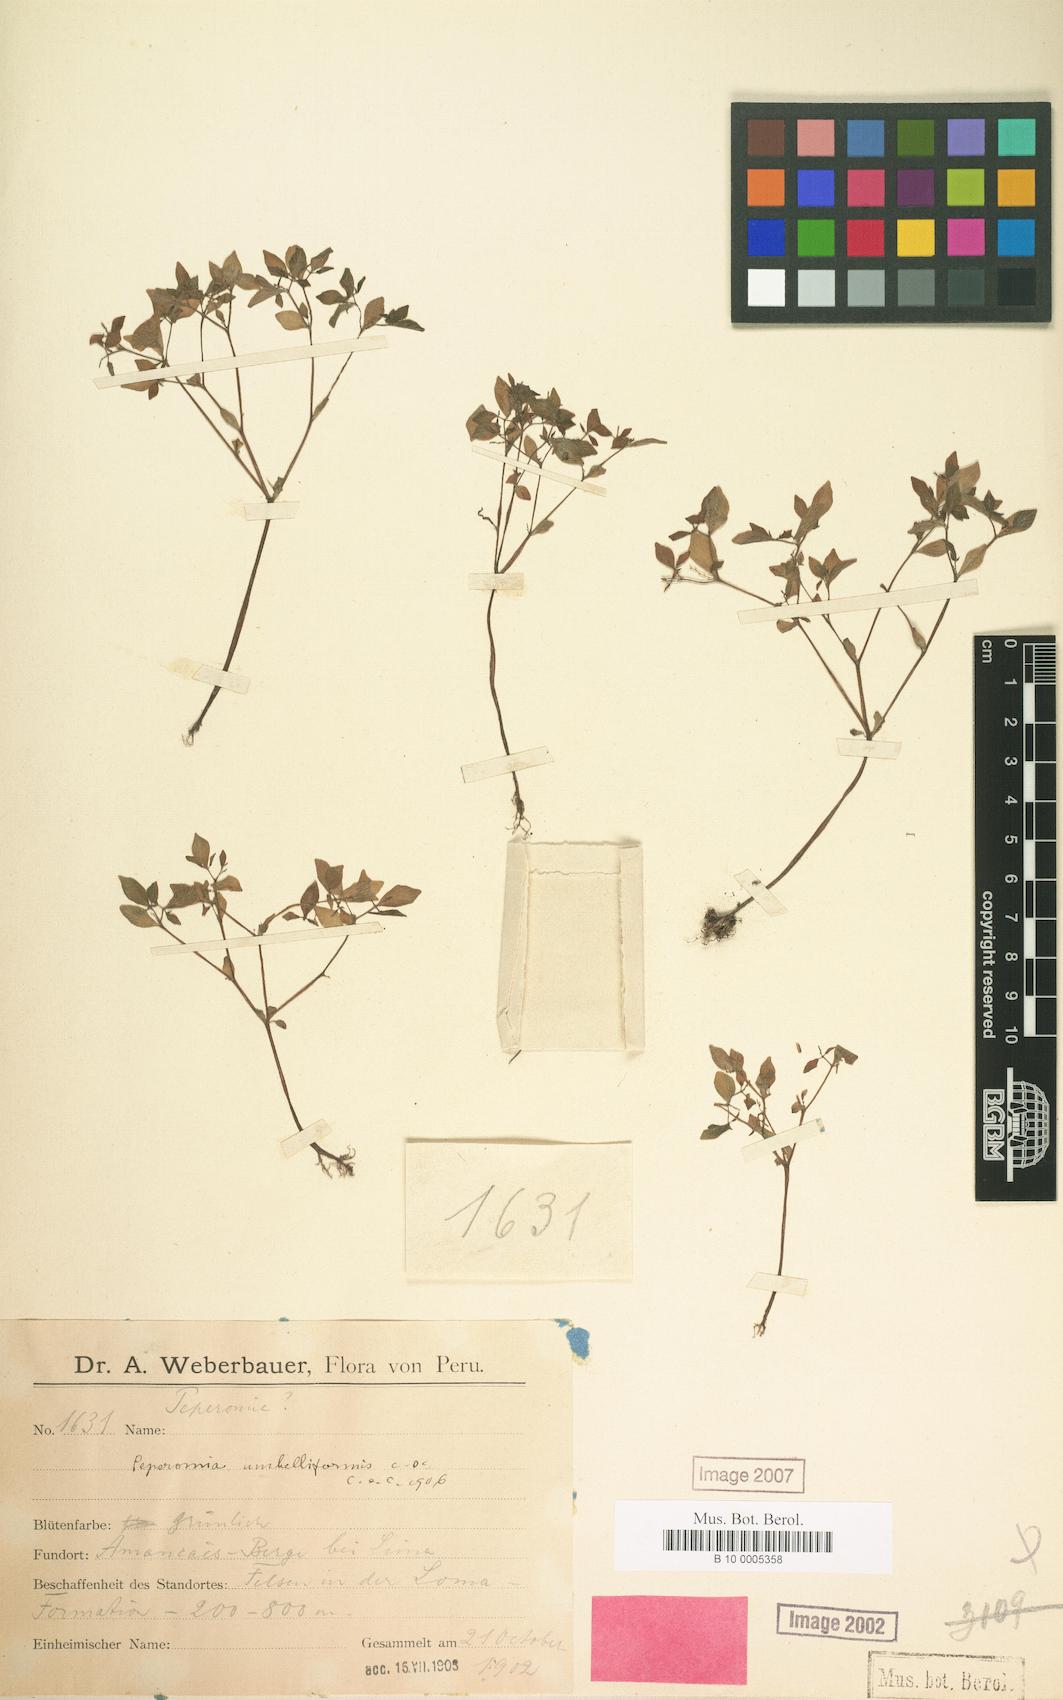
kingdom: Plantae
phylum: Tracheophyta
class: Magnoliopsida
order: Piperales
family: Piperaceae
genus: Peperomia
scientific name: Peperomia crystallina
